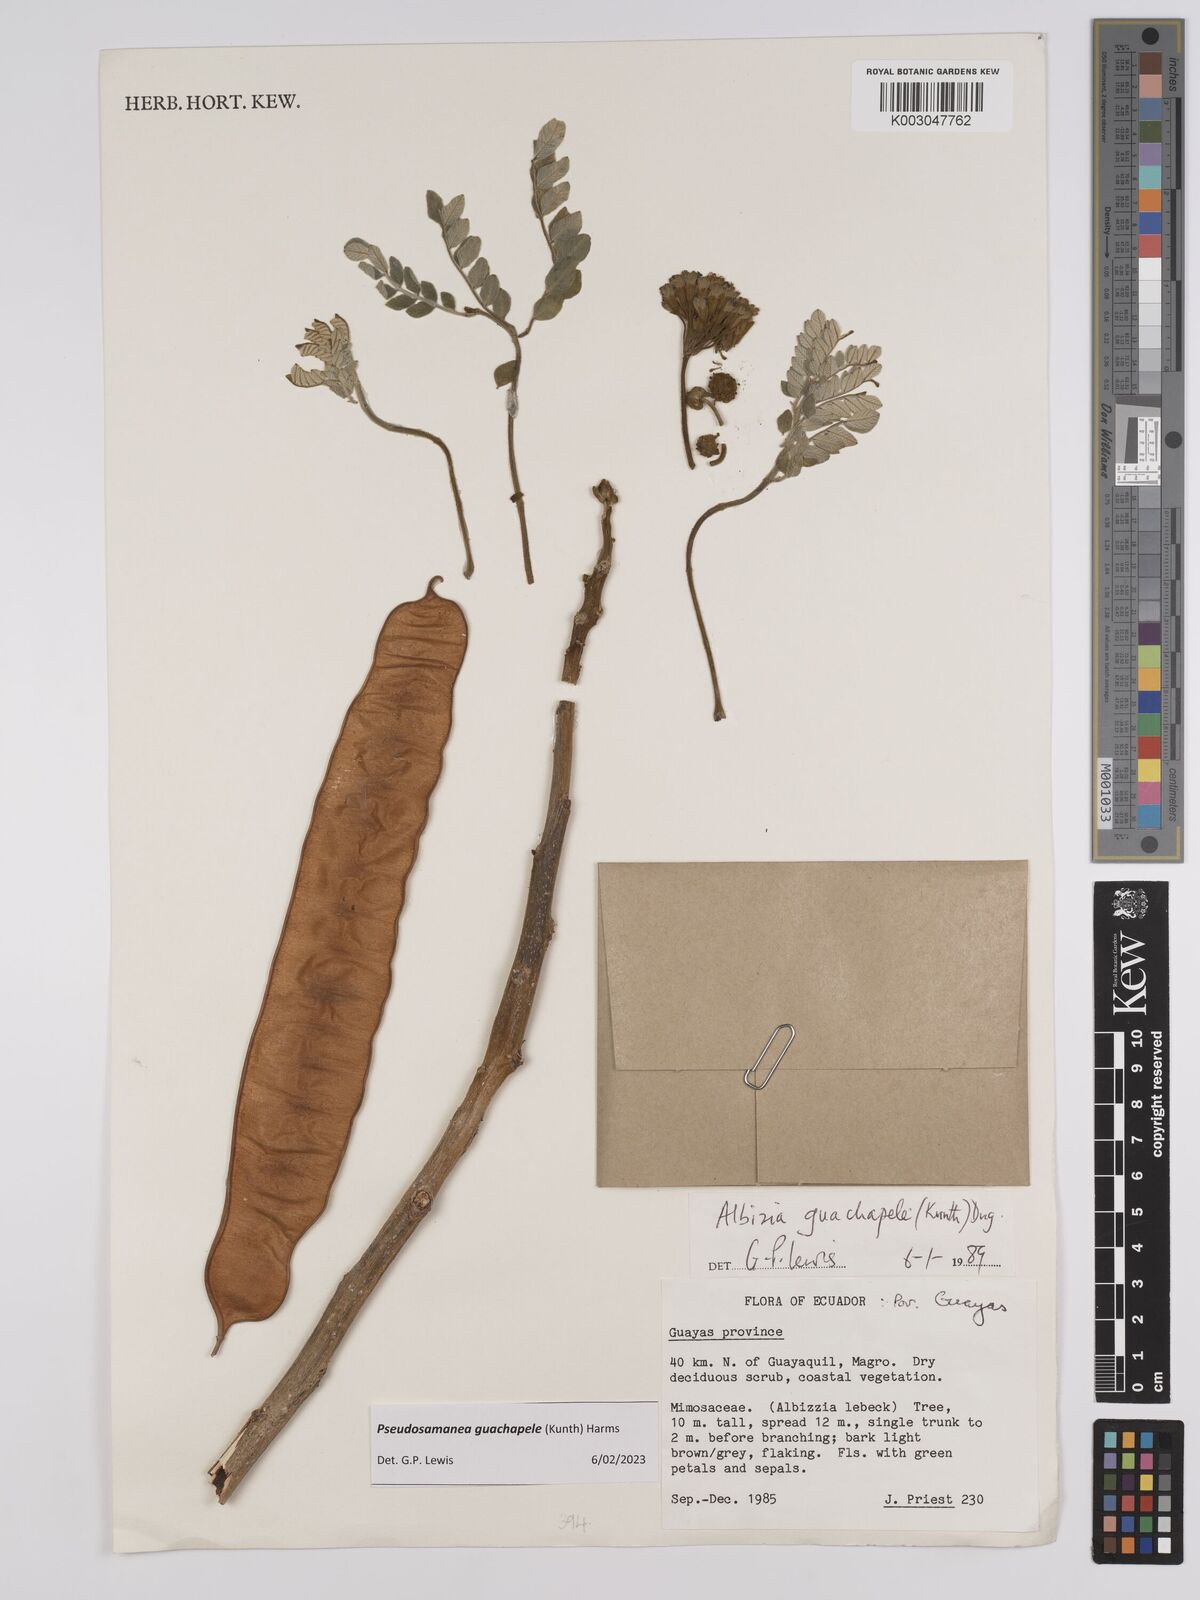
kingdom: Plantae
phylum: Tracheophyta
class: Magnoliopsida
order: Fabales
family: Fabaceae
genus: Pseudosamanea
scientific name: Pseudosamanea guachapele
